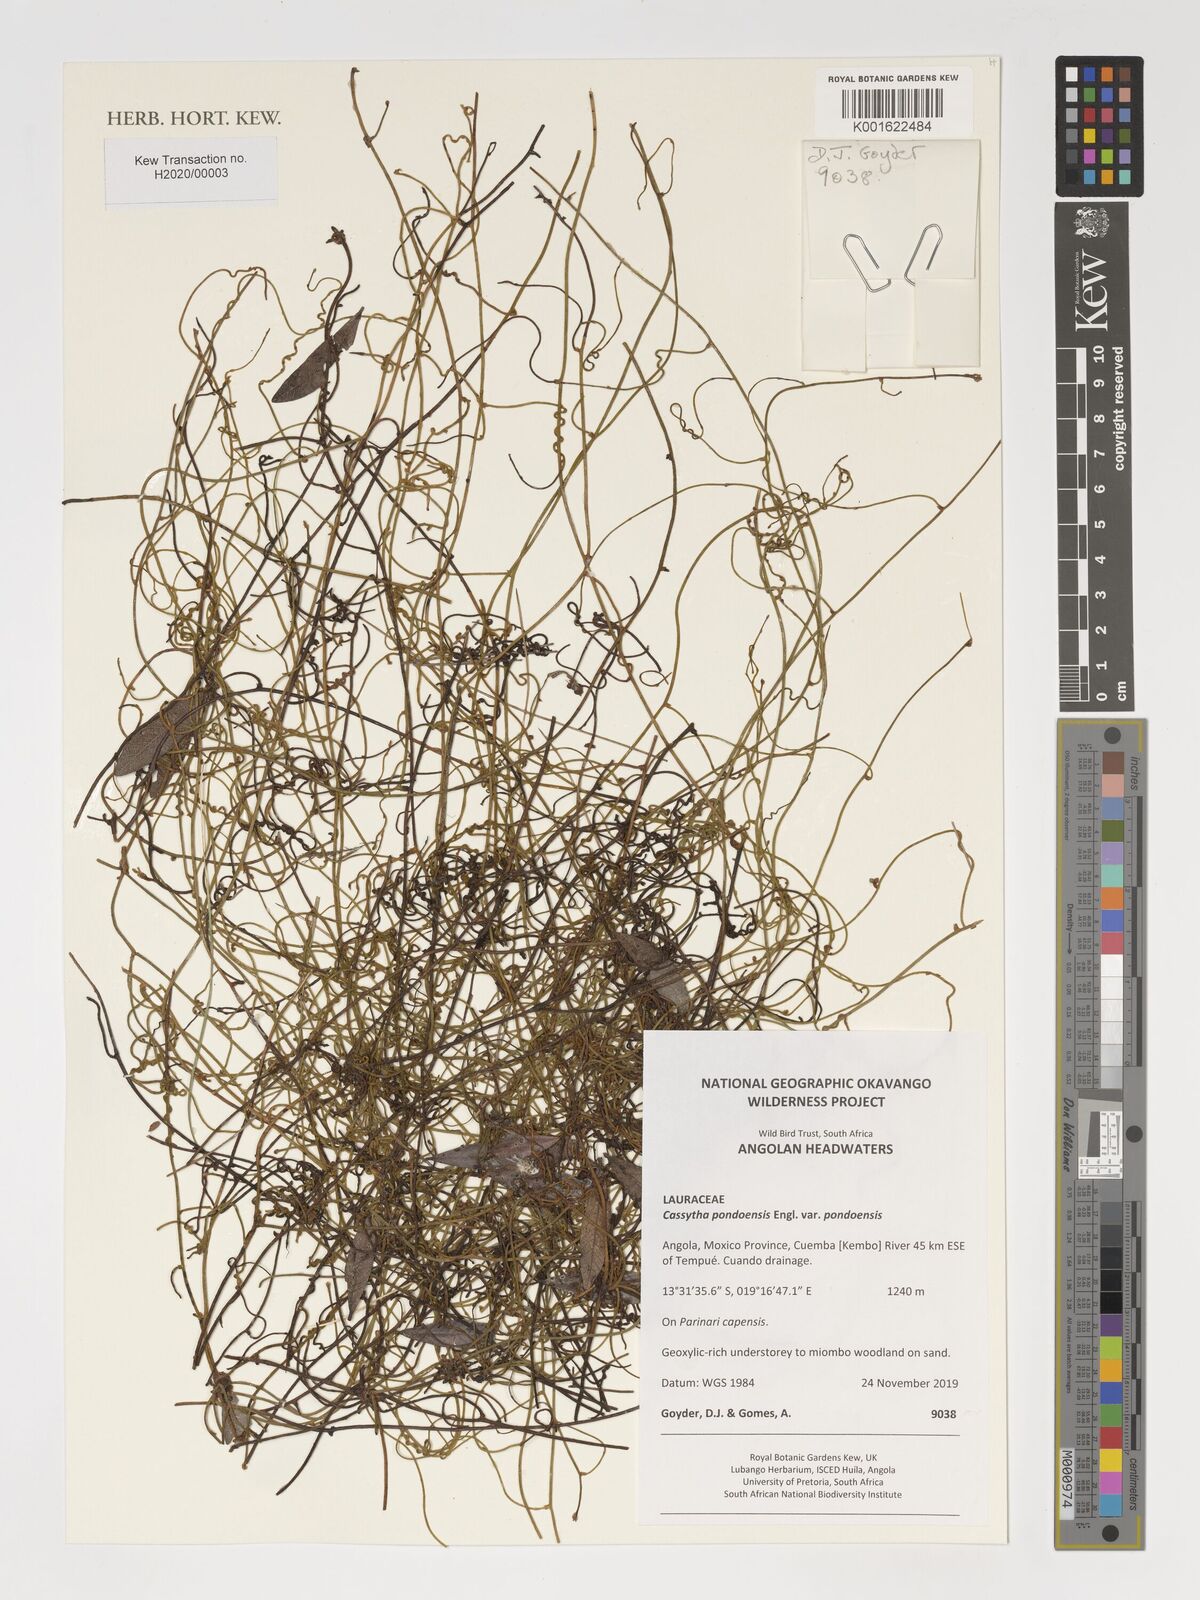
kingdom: Plantae
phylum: Tracheophyta
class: Magnoliopsida
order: Laurales
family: Lauraceae
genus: Cassytha
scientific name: Cassytha pondoensis
